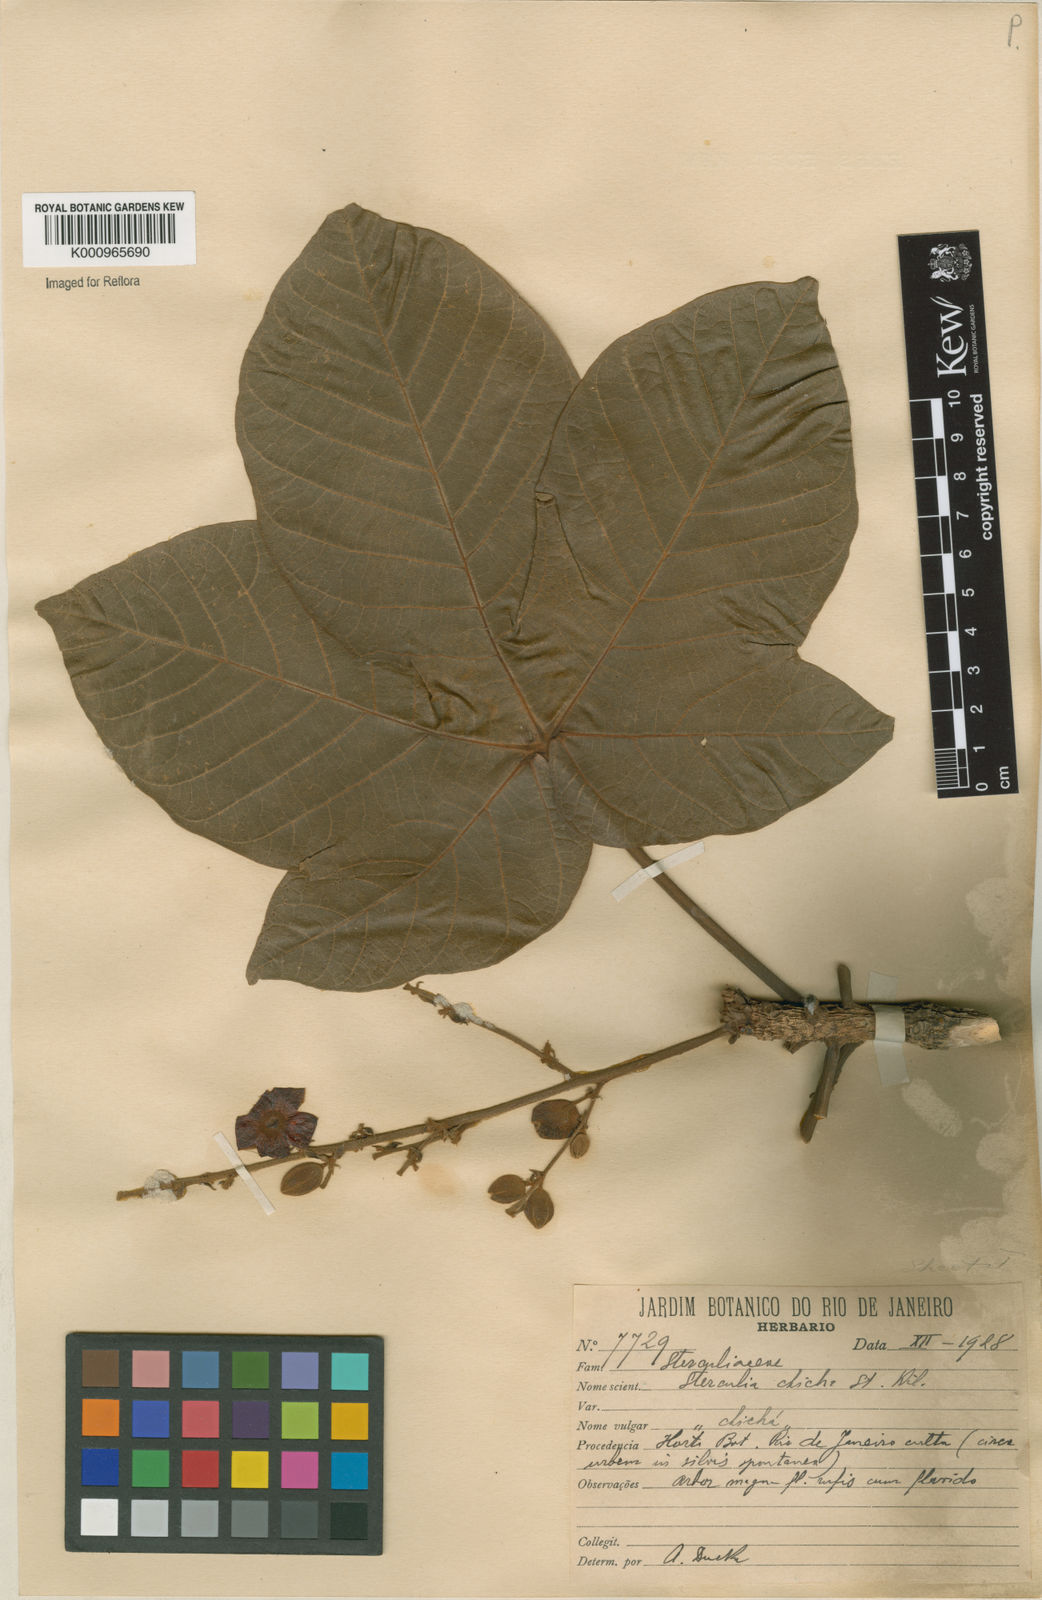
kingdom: Plantae
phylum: Tracheophyta
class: Magnoliopsida
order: Malvales
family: Malvaceae
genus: Sterculia
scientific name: Sterculia apetala
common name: Panama tree
